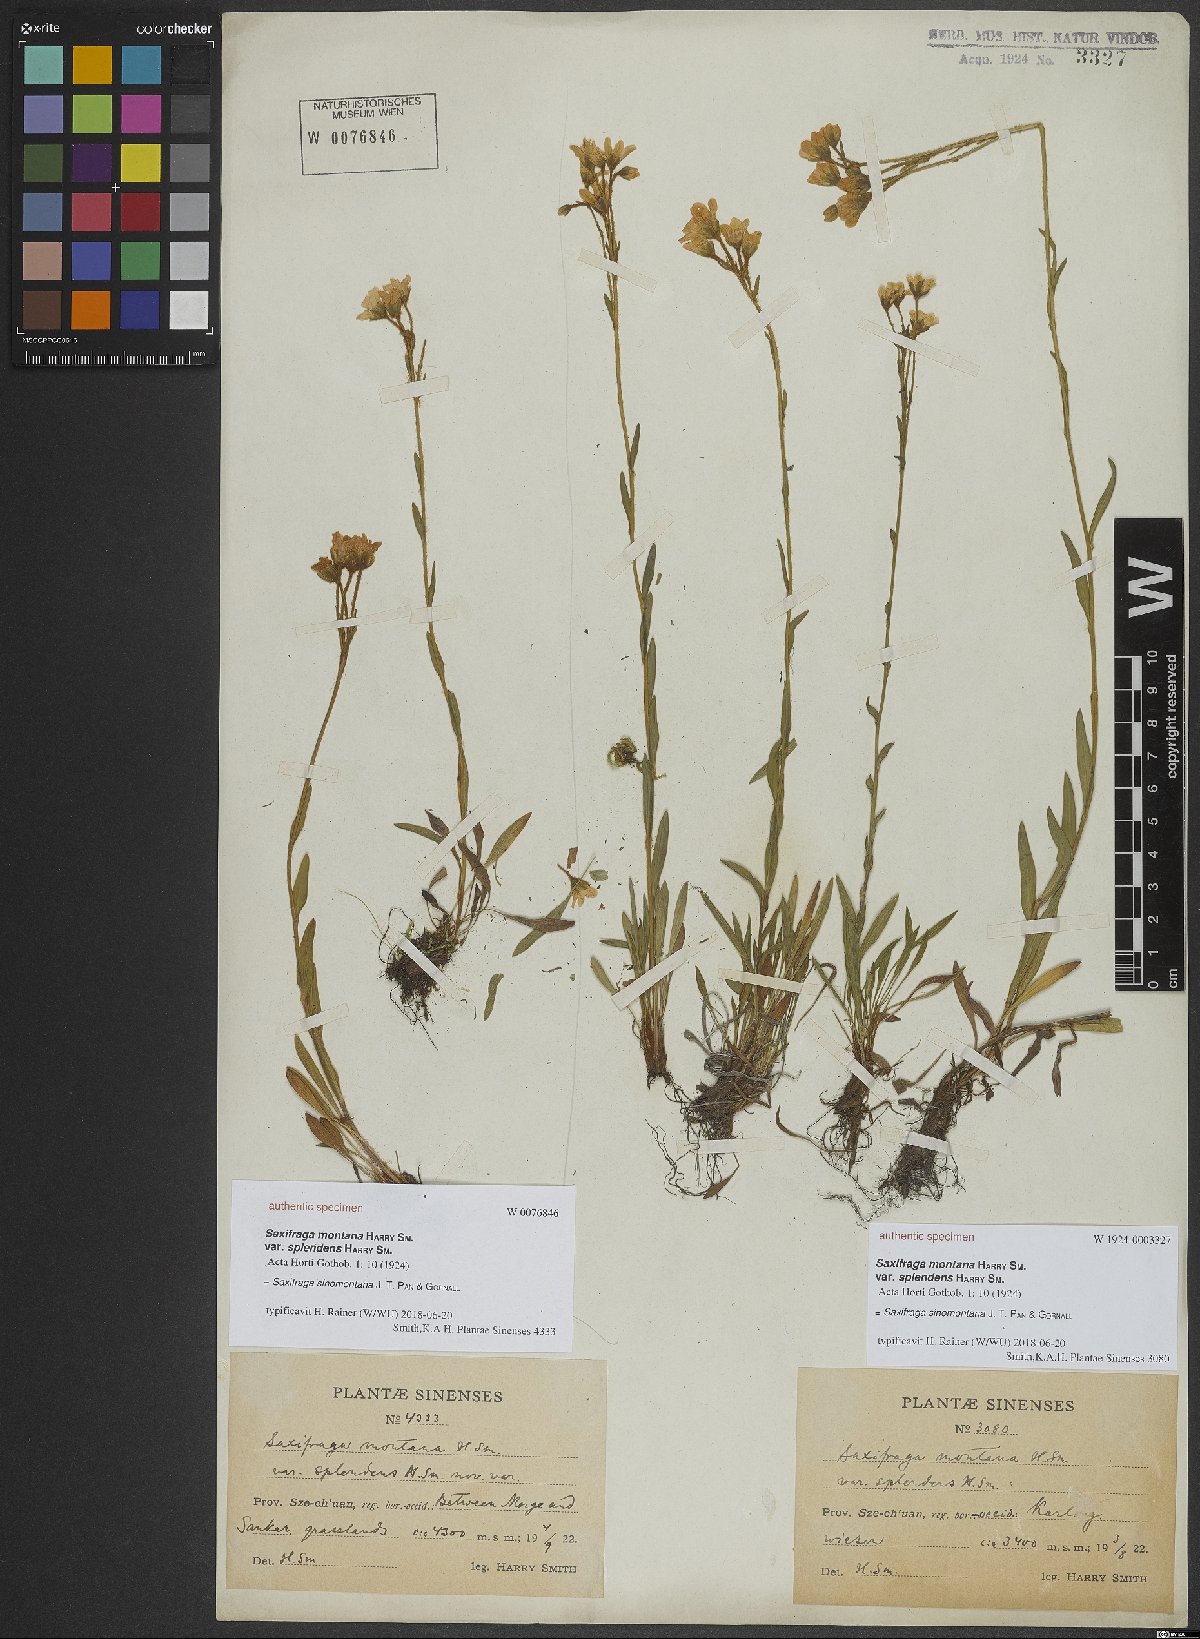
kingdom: Plantae
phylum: Tracheophyta
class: Magnoliopsida
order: Saxifragales
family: Saxifragaceae
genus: Saxifraga
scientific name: Saxifraga sinomontana
